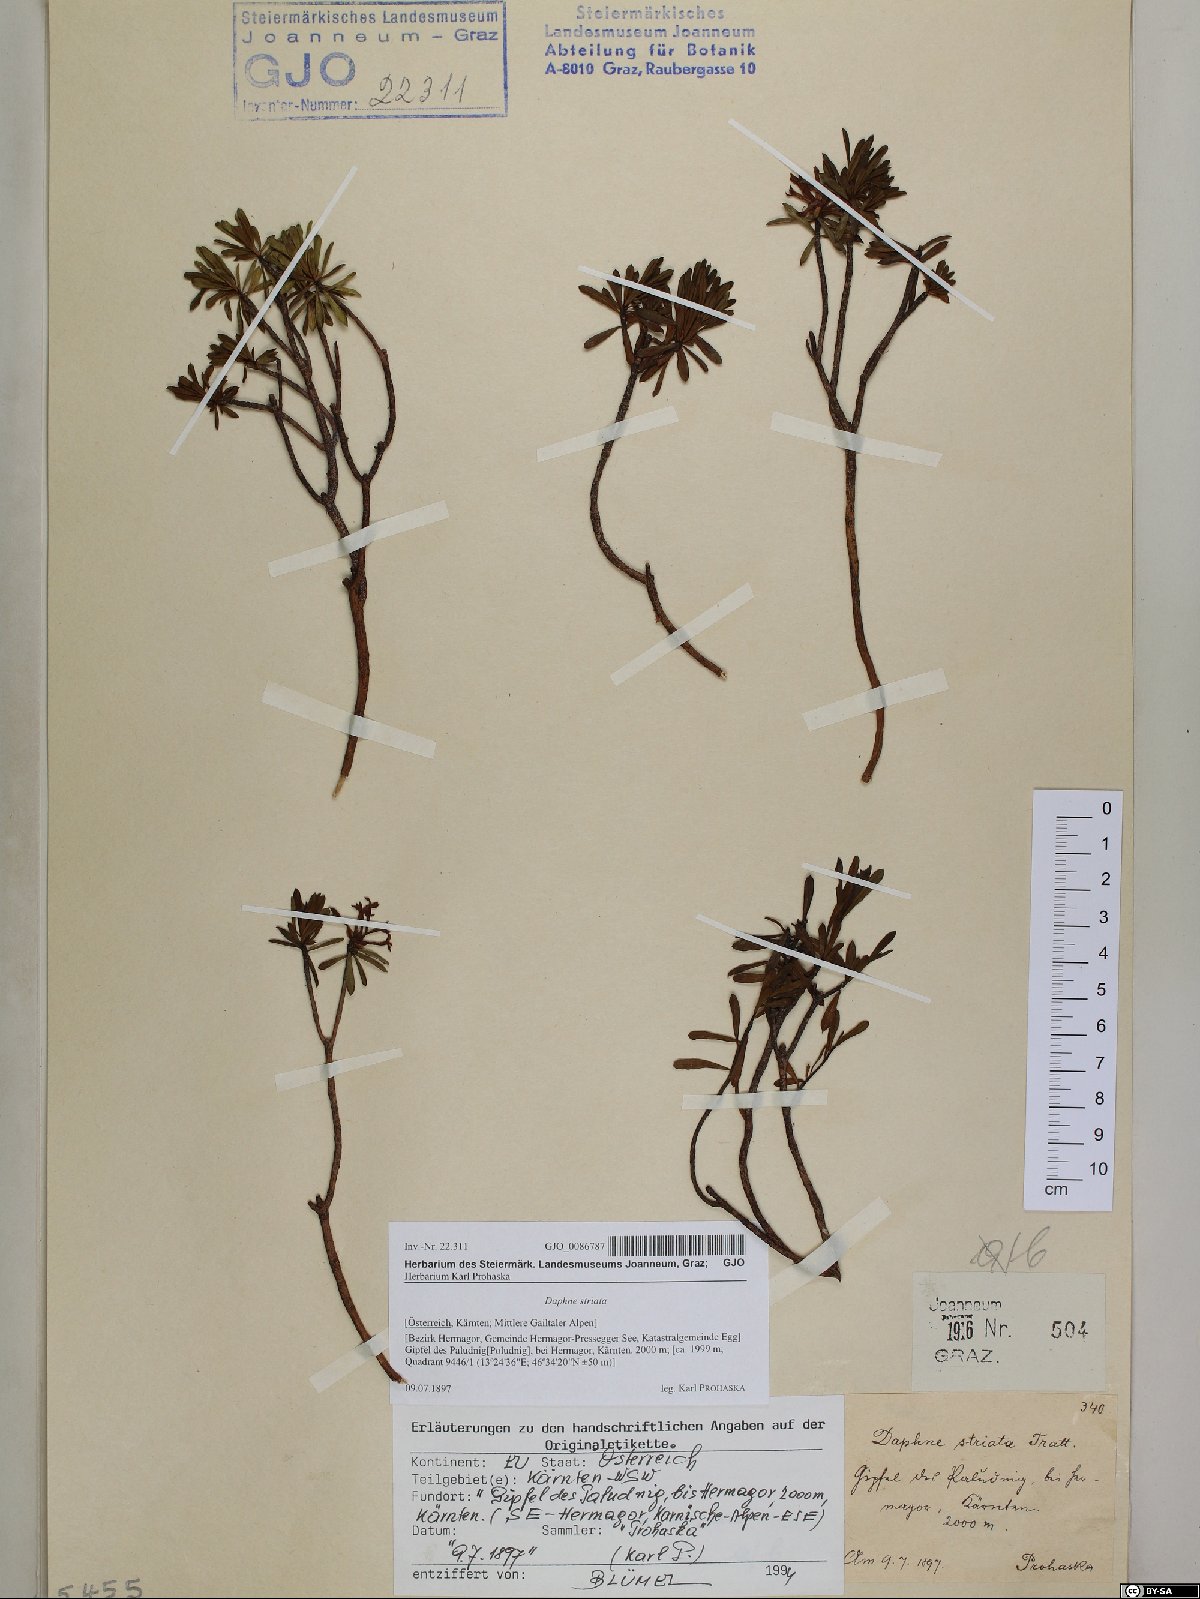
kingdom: Plantae
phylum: Tracheophyta
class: Magnoliopsida
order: Malvales
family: Thymelaeaceae
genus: Daphne
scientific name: Daphne striata
